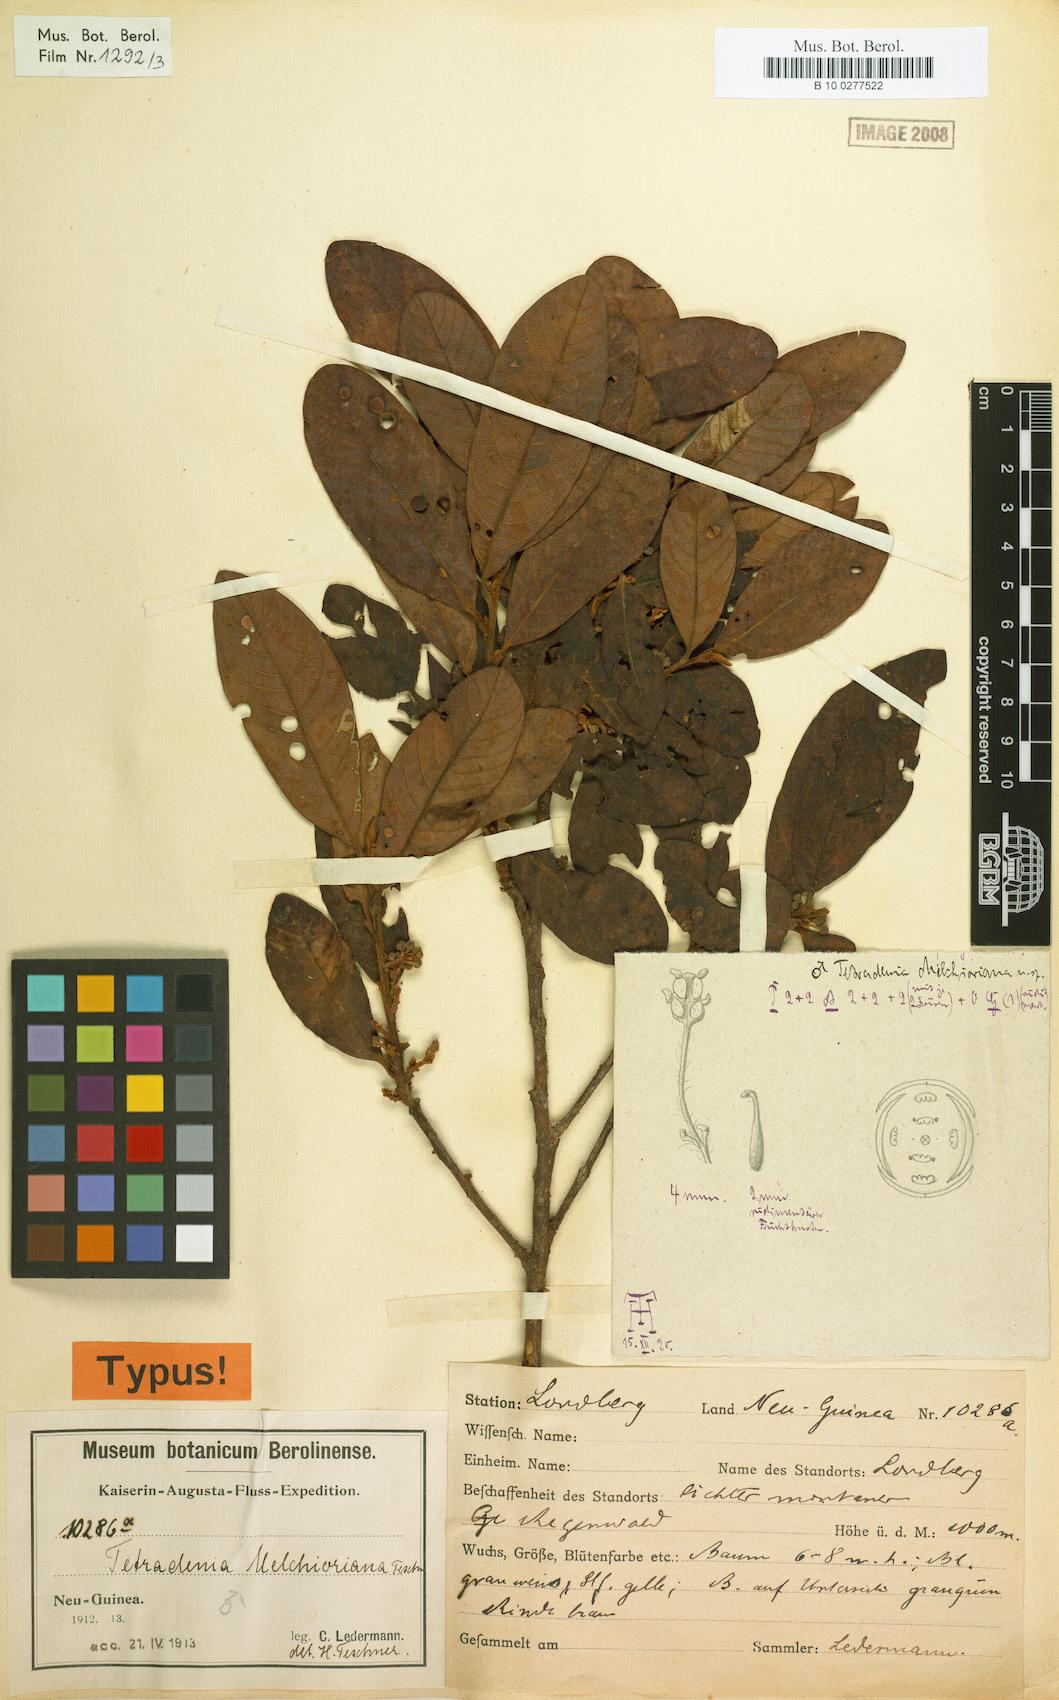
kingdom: Plantae
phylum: Tracheophyta
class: Magnoliopsida
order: Laurales
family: Lauraceae
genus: Litsea
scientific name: Litsea melchioriana
